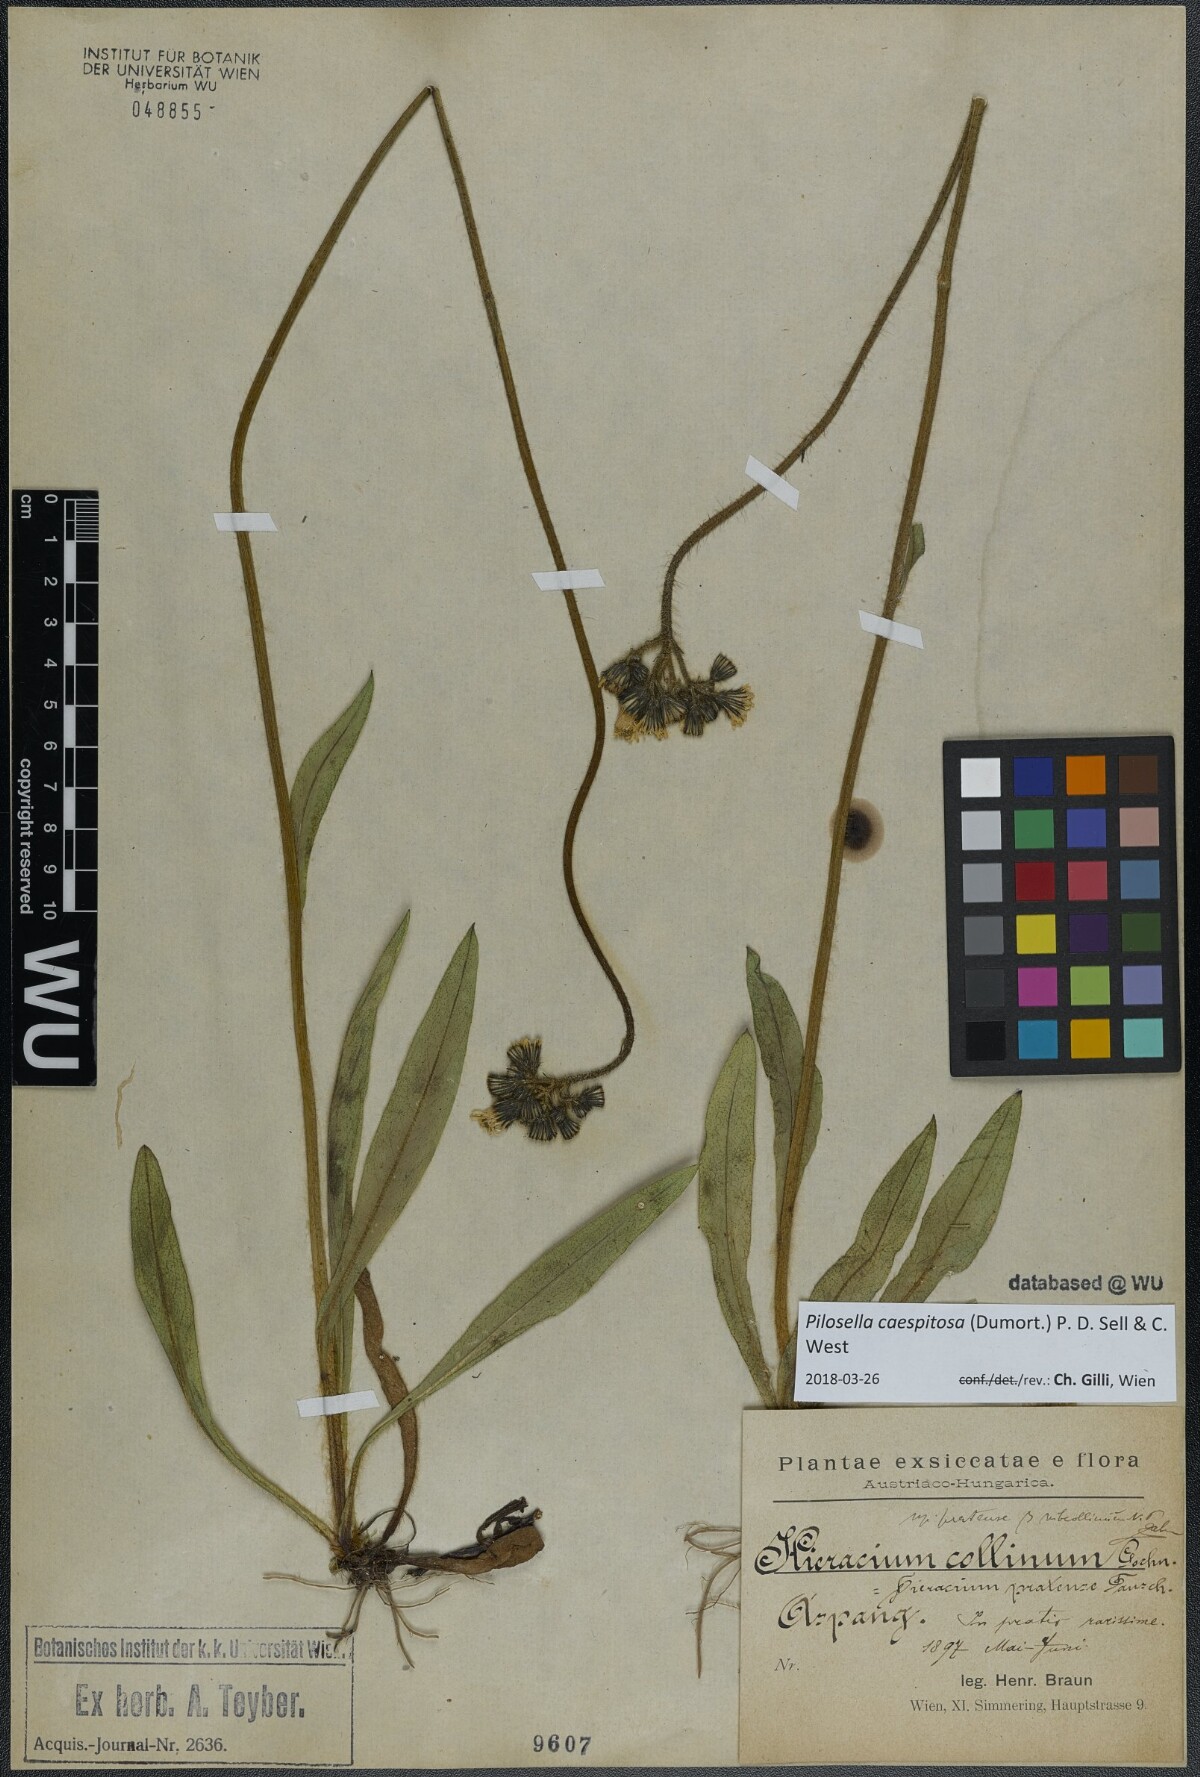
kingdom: Plantae
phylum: Tracheophyta
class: Magnoliopsida
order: Asterales
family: Asteraceae
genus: Pilosella
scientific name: Pilosella caespitosa
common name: Yellow fox-and-cubs
